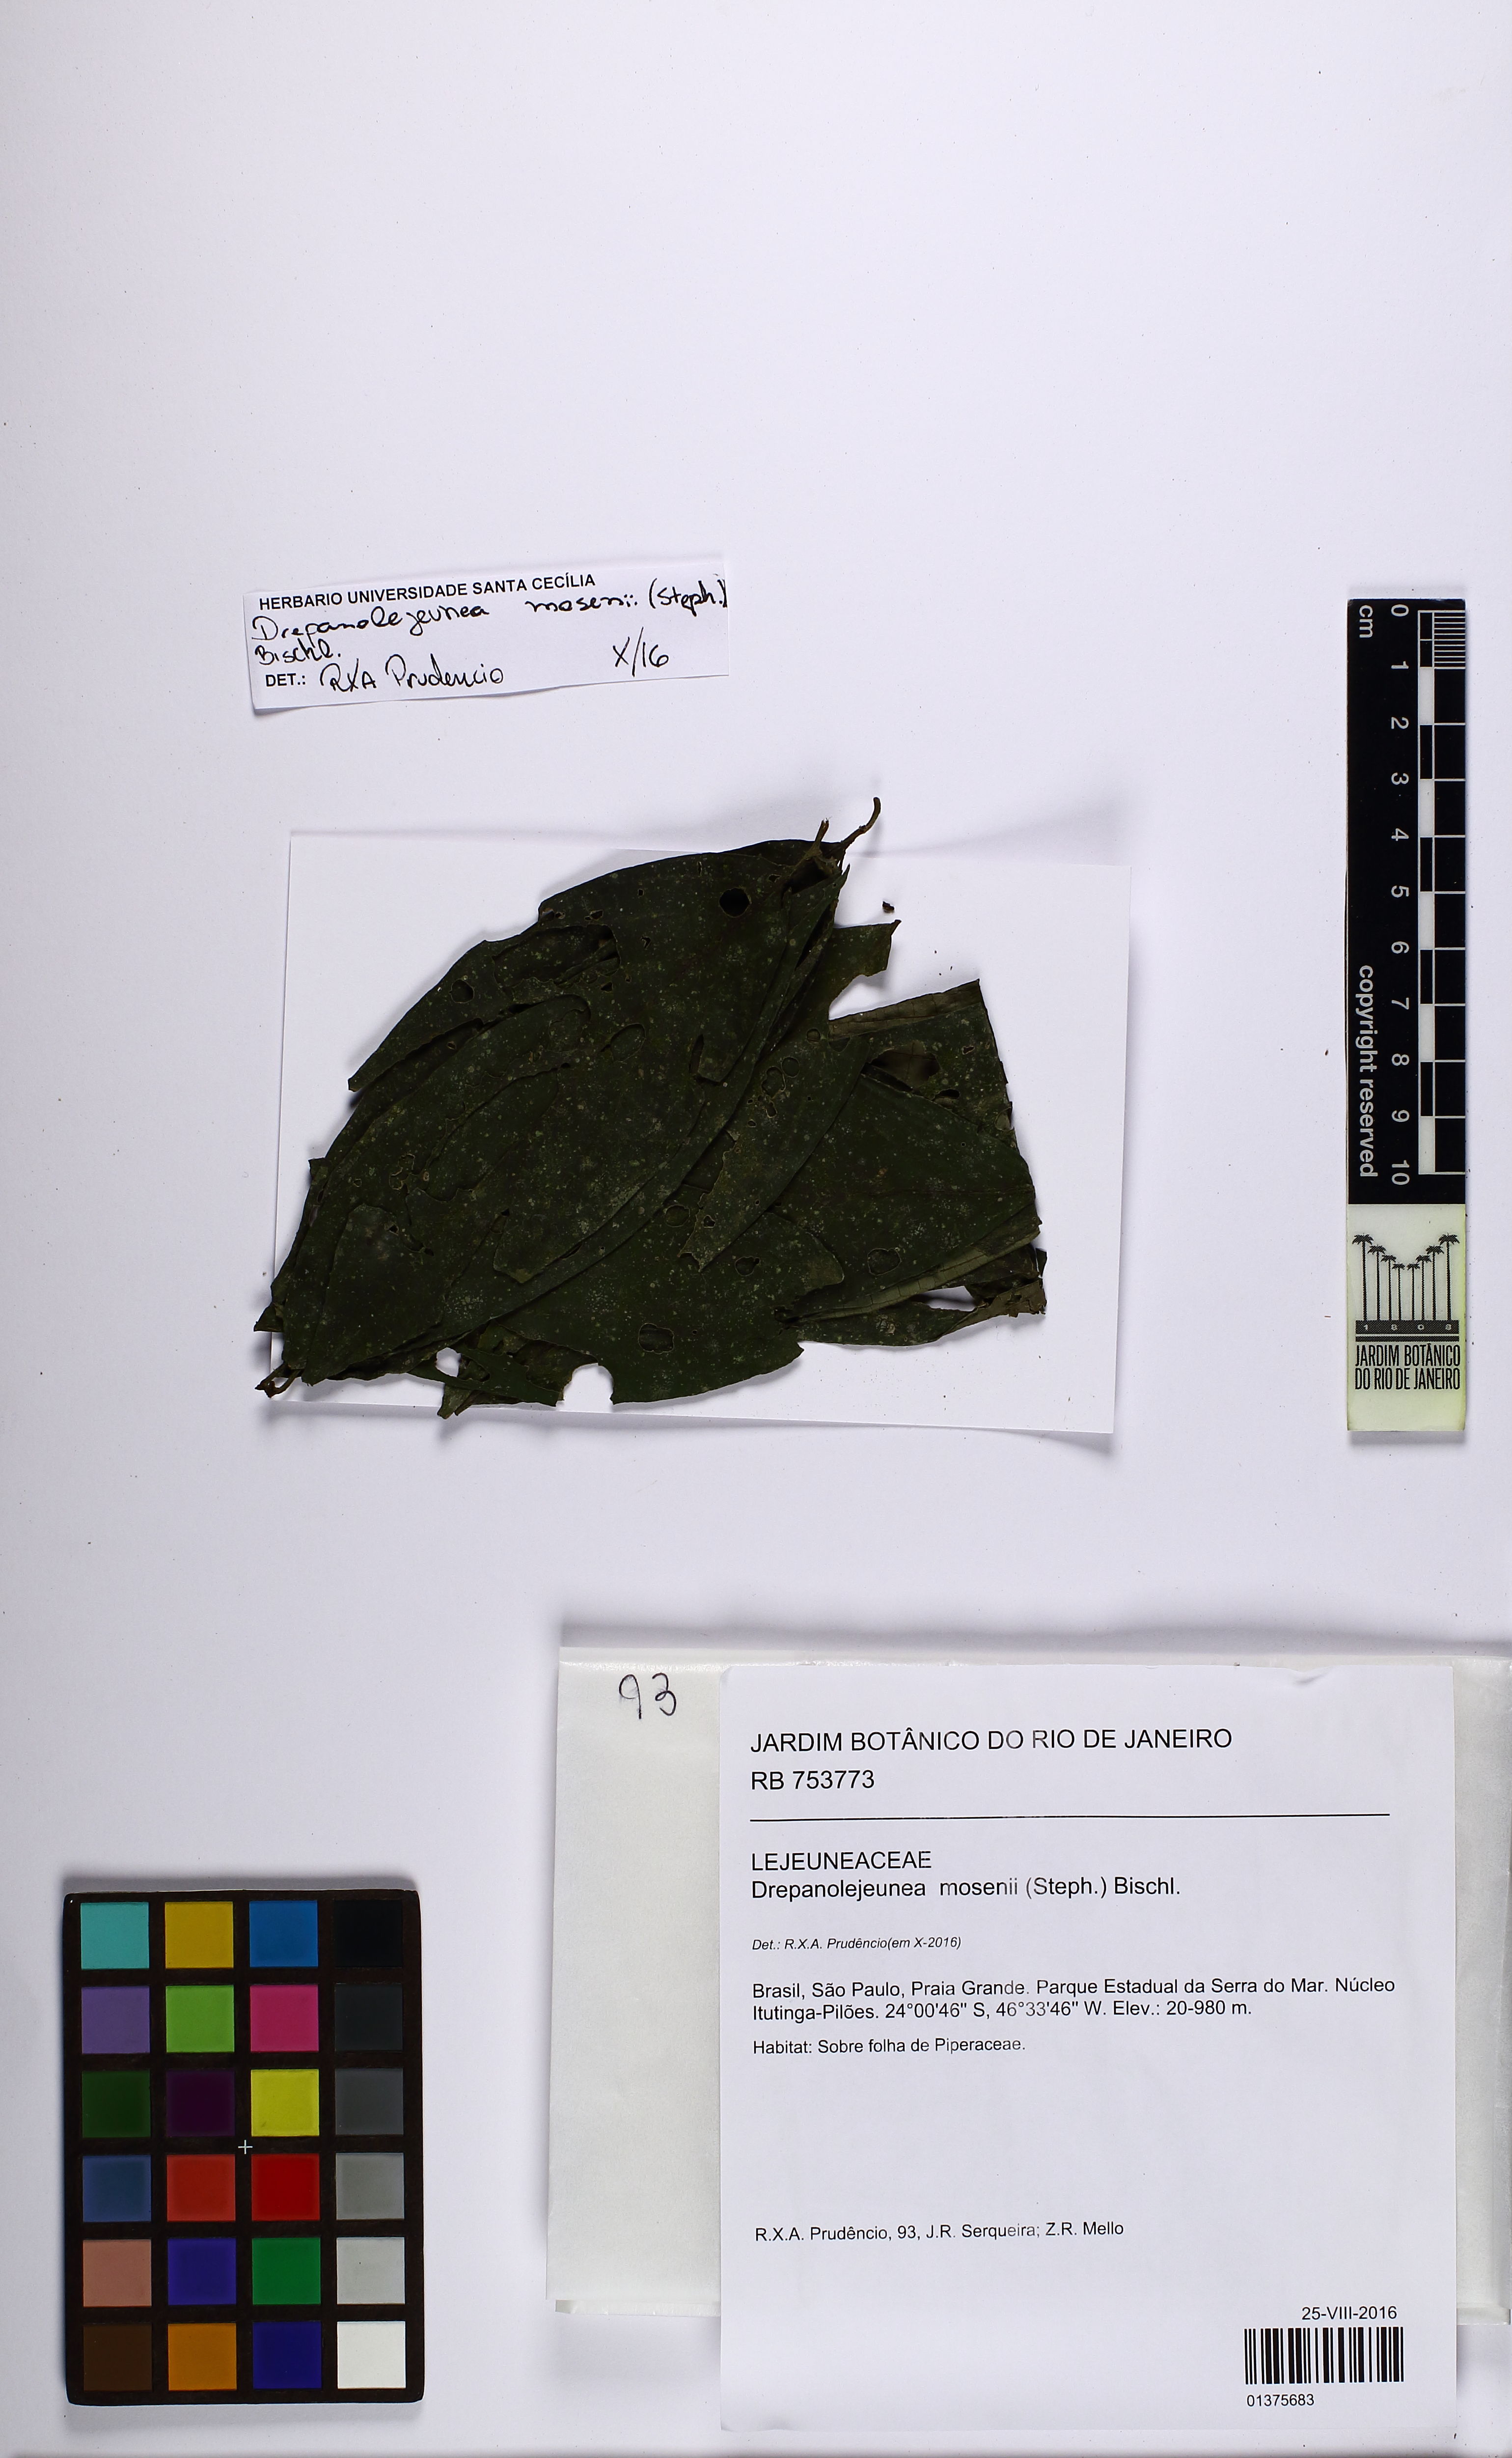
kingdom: Plantae
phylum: Marchantiophyta
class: Jungermanniopsida
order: Porellales
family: Lejeuneaceae
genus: Drepanolejeunea
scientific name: Drepanolejeunea mosenii
